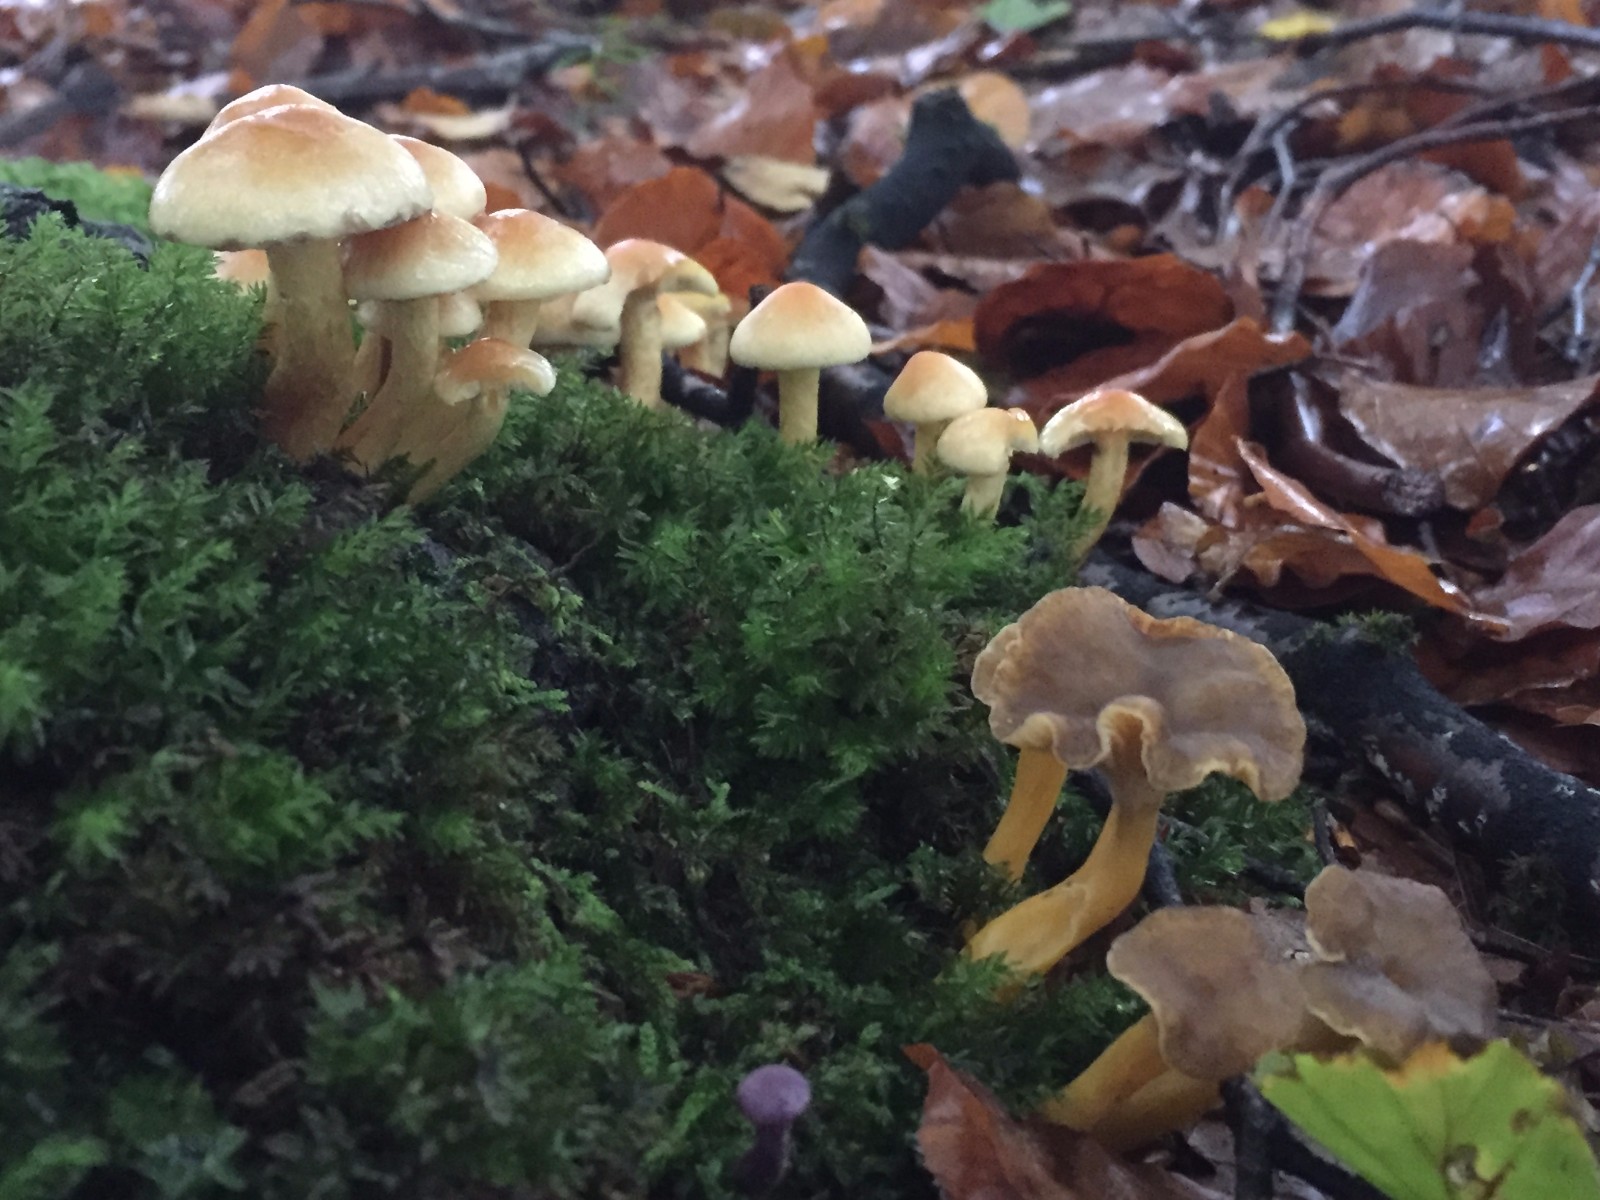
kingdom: Fungi
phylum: Basidiomycota
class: Agaricomycetes
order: Cantharellales
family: Hydnaceae
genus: Craterellus
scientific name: Craterellus tubaeformis
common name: tragt-kantarel
